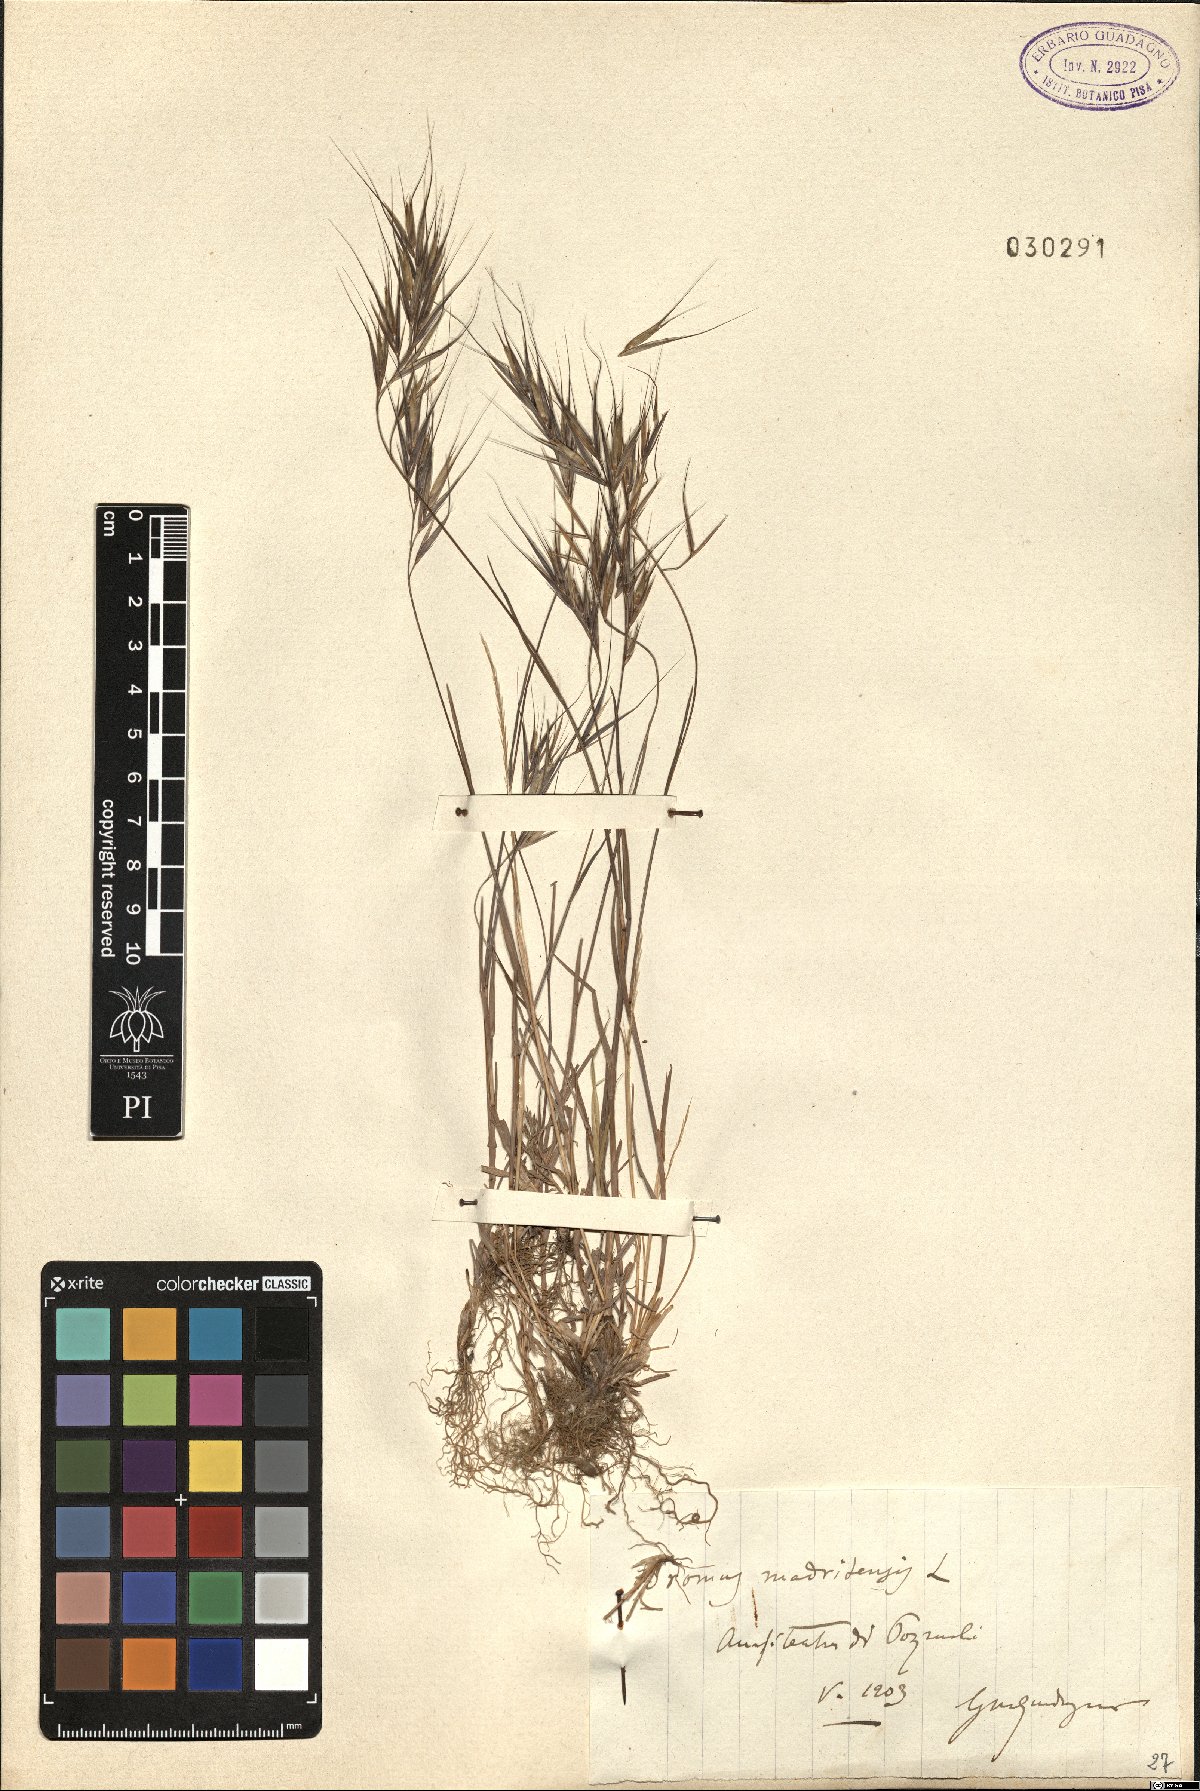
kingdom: Plantae
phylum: Tracheophyta
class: Liliopsida
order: Poales
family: Poaceae
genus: Bromus
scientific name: Bromus madritensis
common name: Compact brome
